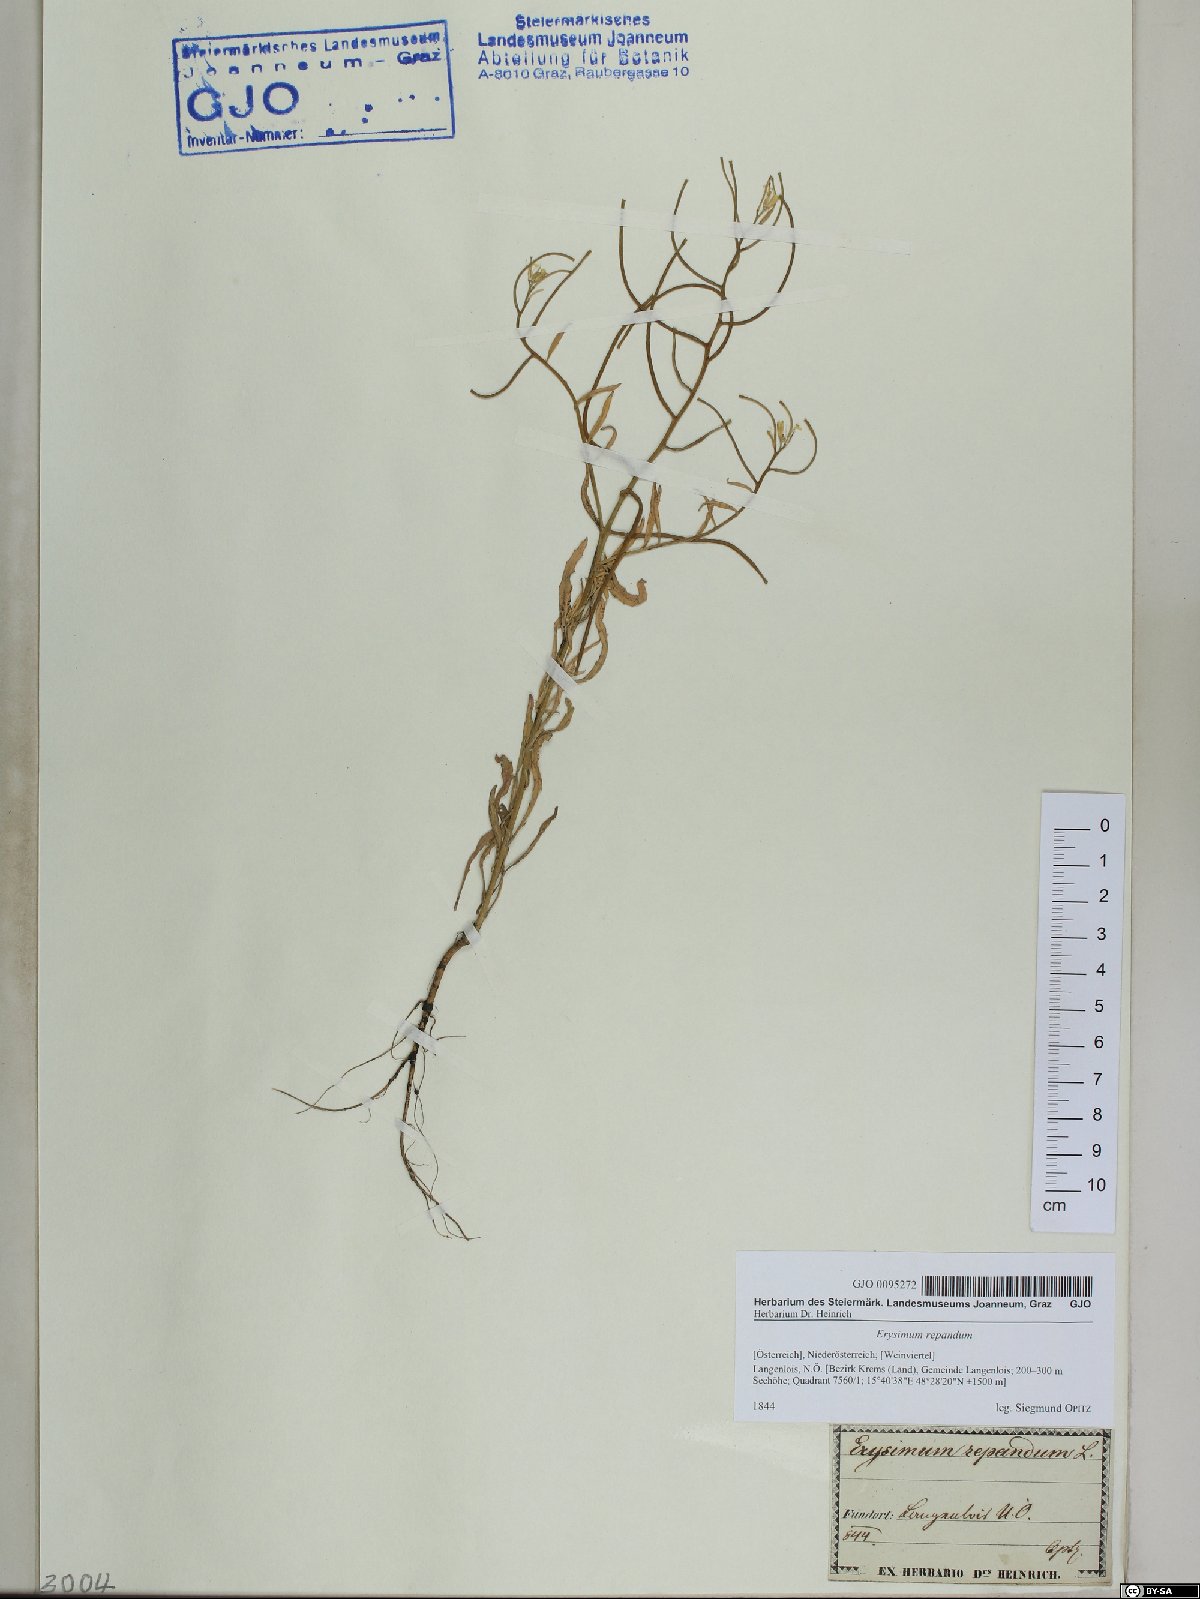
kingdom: Plantae
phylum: Tracheophyta
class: Magnoliopsida
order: Brassicales
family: Brassicaceae
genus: Erysimum
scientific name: Erysimum repandum
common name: Spreading wallflower
